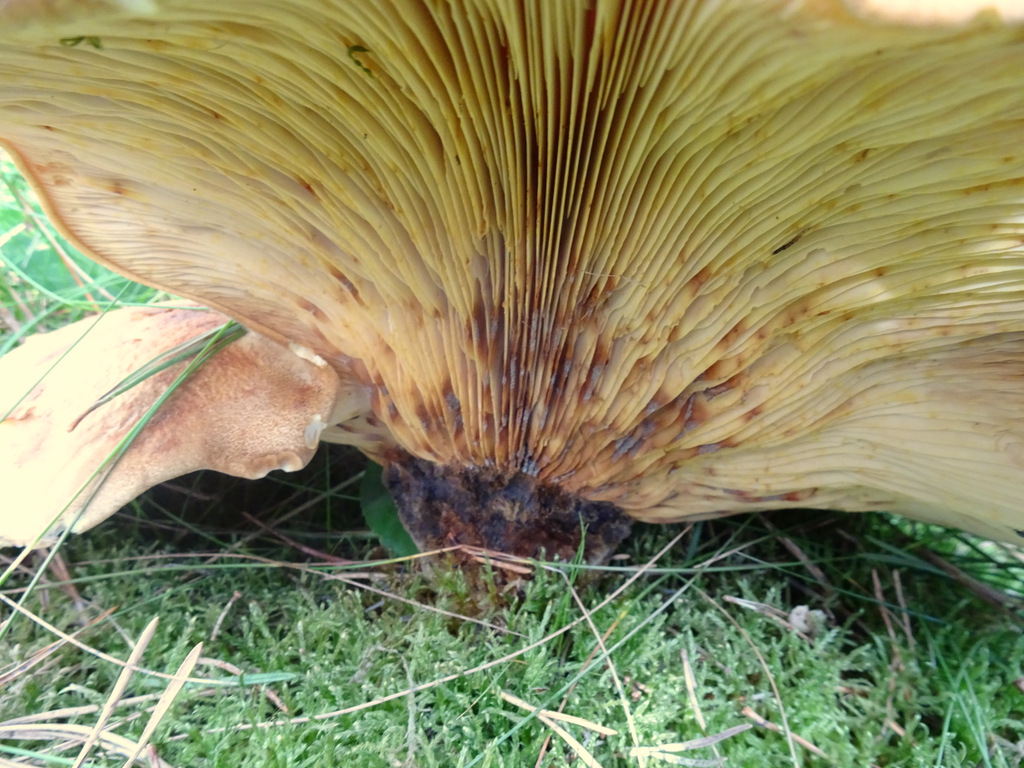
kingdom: Fungi
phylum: Basidiomycota
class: Agaricomycetes
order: Boletales
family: Tapinellaceae
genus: Tapinella
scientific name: Tapinella atrotomentosa
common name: sortfiltet viftesvamp
